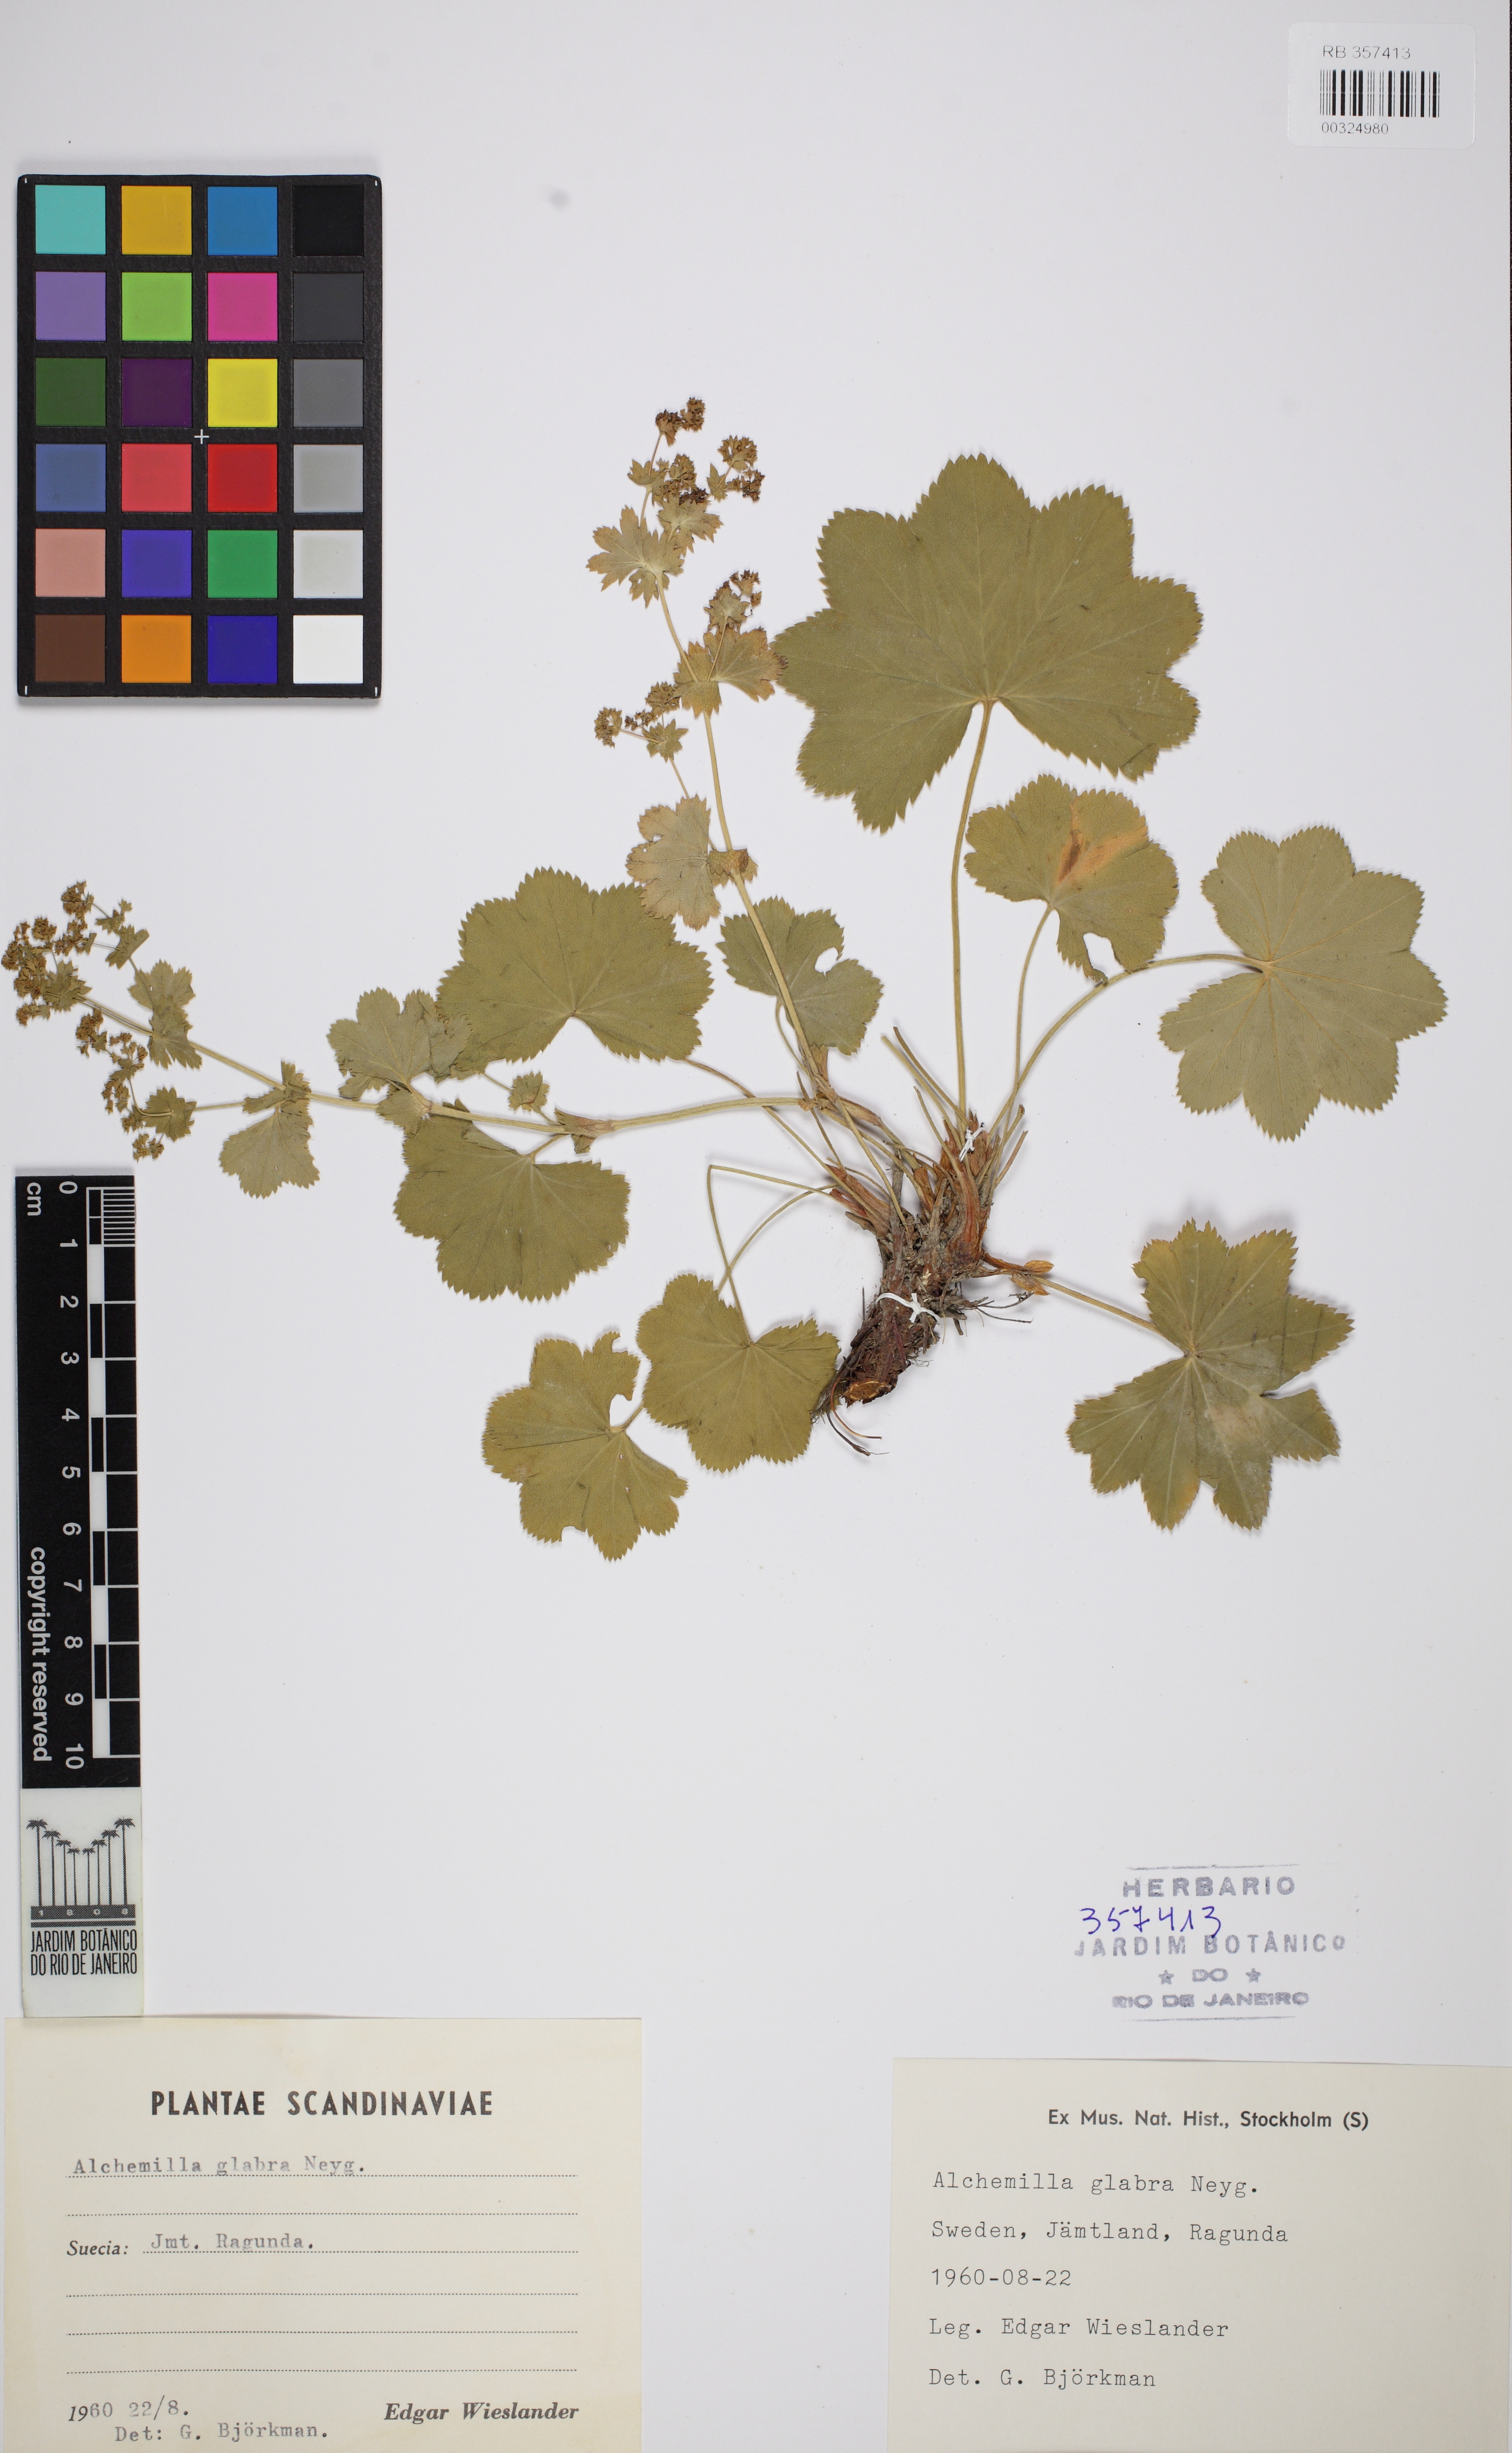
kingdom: Plantae
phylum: Tracheophyta
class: Magnoliopsida
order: Rosales
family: Rosaceae
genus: Alchemilla
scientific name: Alchemilla glabra
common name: Smooth lady's-mantle
